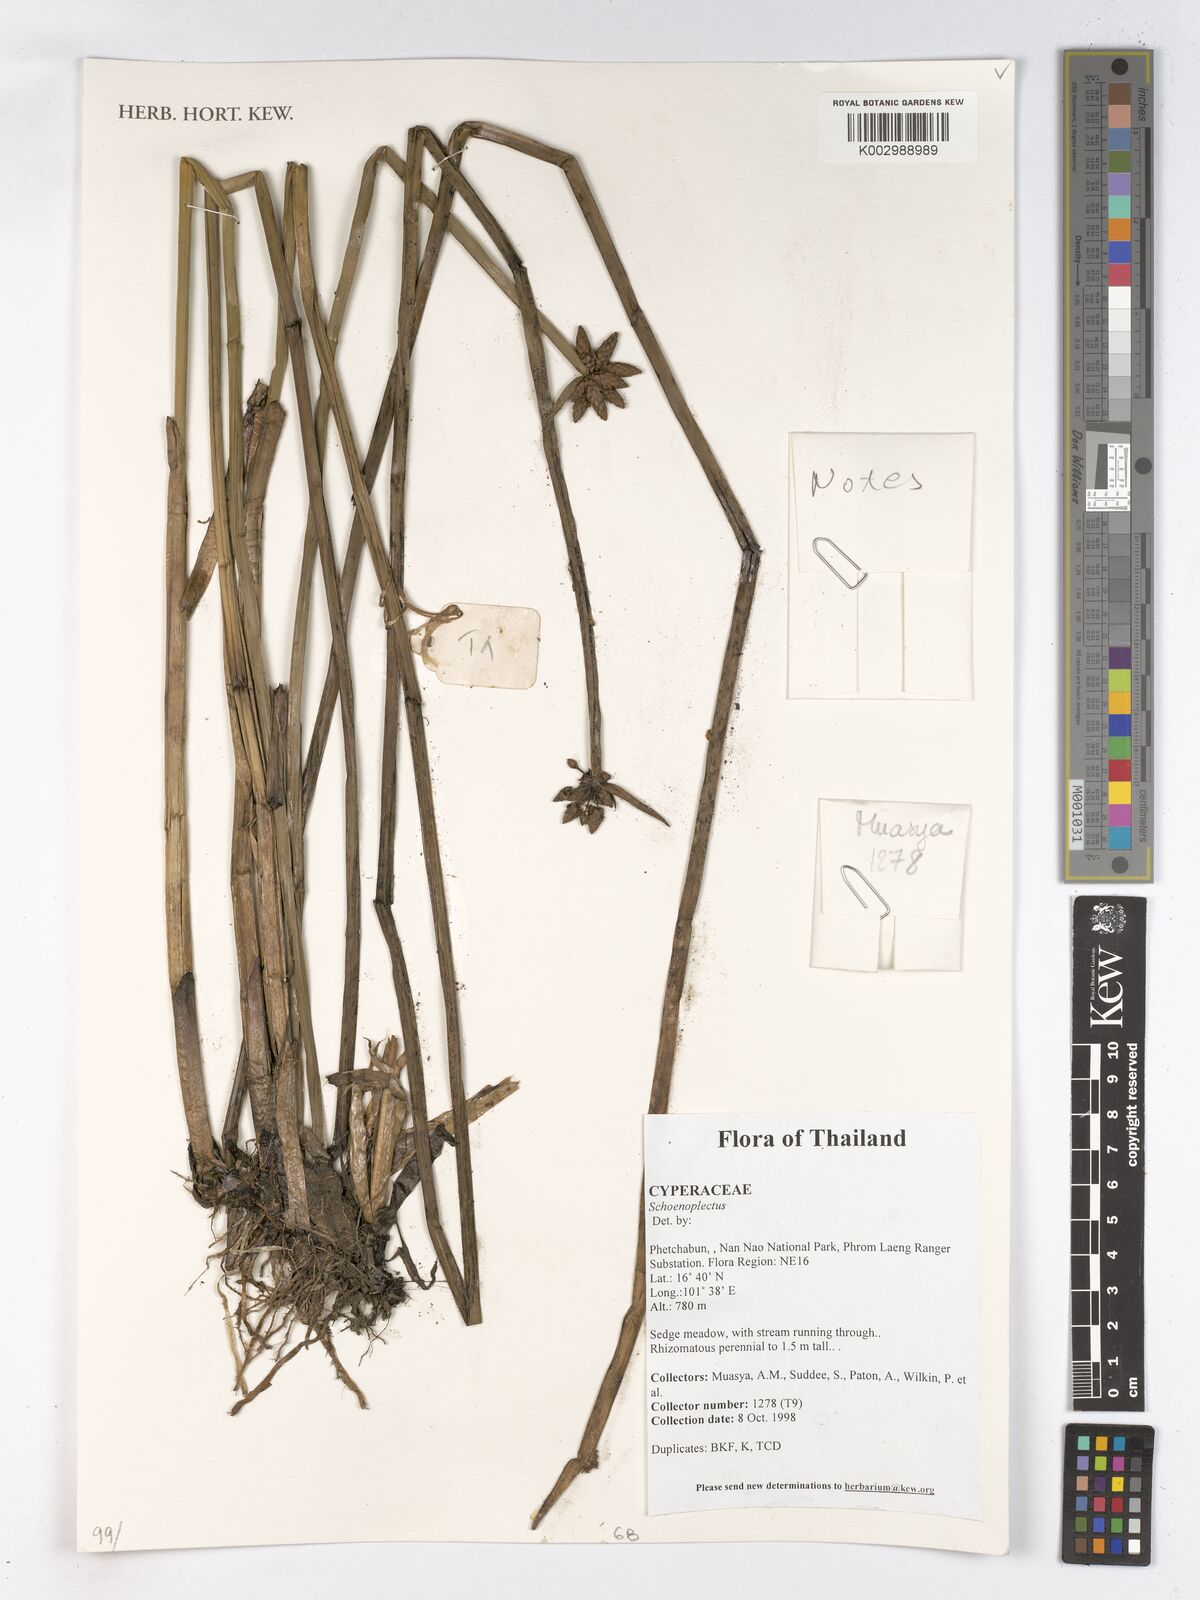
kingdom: Plantae
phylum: Tracheophyta
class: Liliopsida
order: Poales
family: Cyperaceae
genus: Schoenoplectus
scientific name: Schoenoplectus
